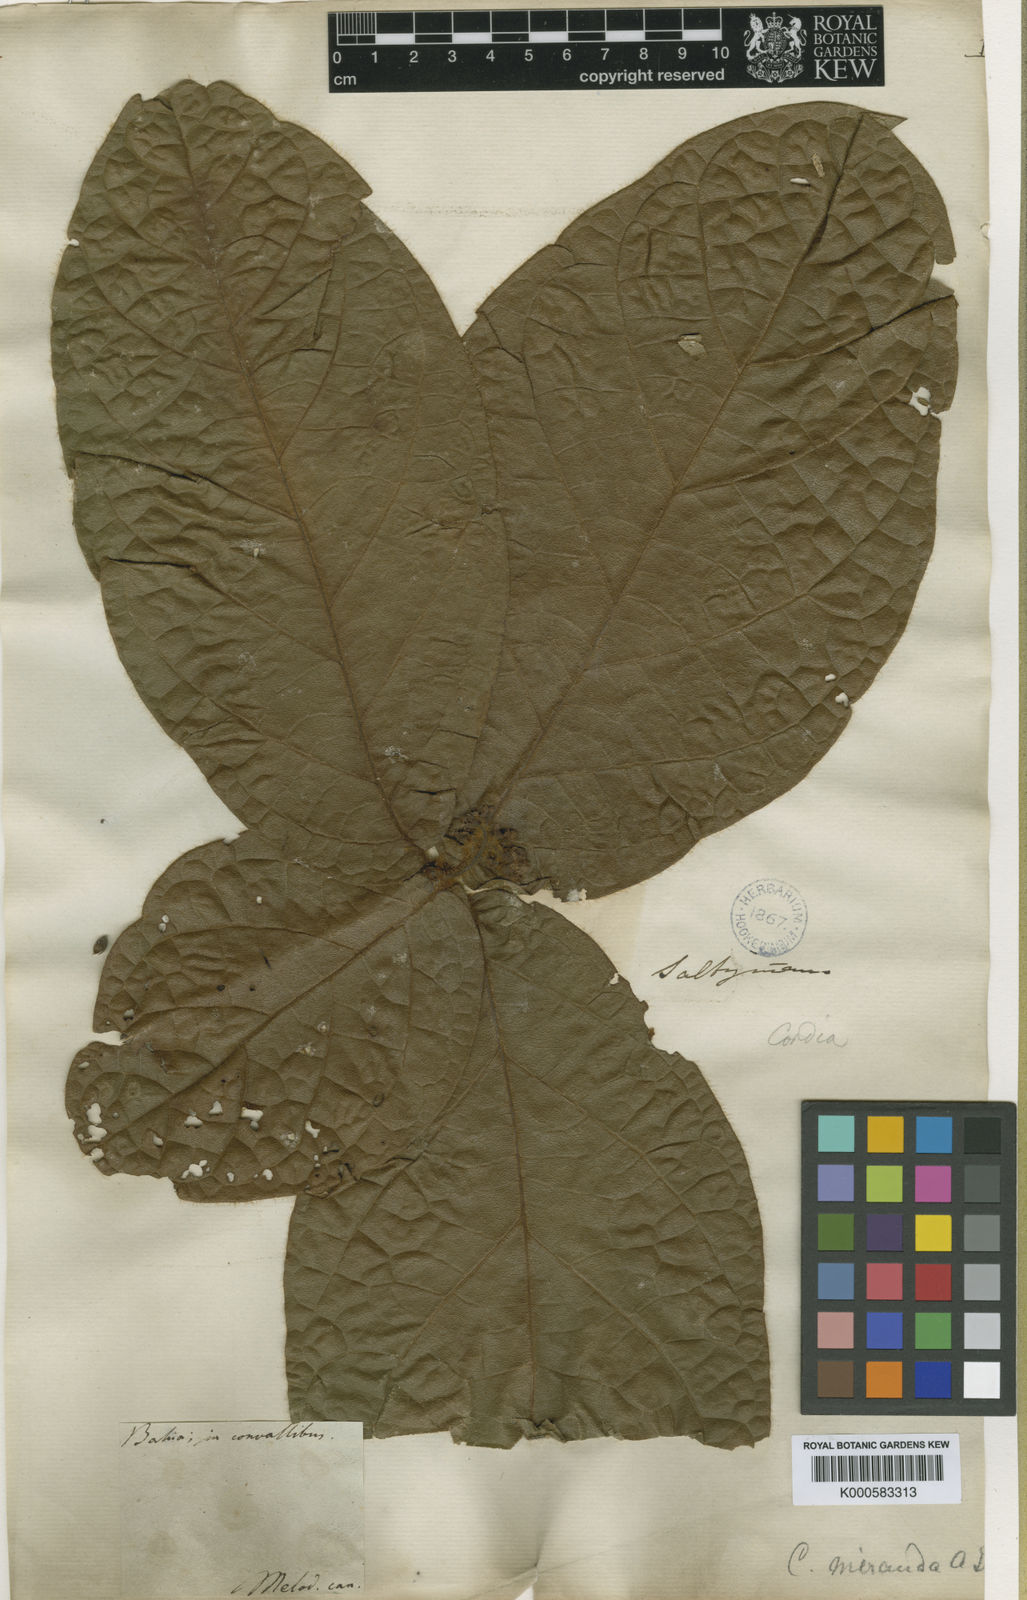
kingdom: Plantae
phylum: Tracheophyta
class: Magnoliopsida
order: Boraginales
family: Cordiaceae
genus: Cordia
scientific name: Cordia nodosa
